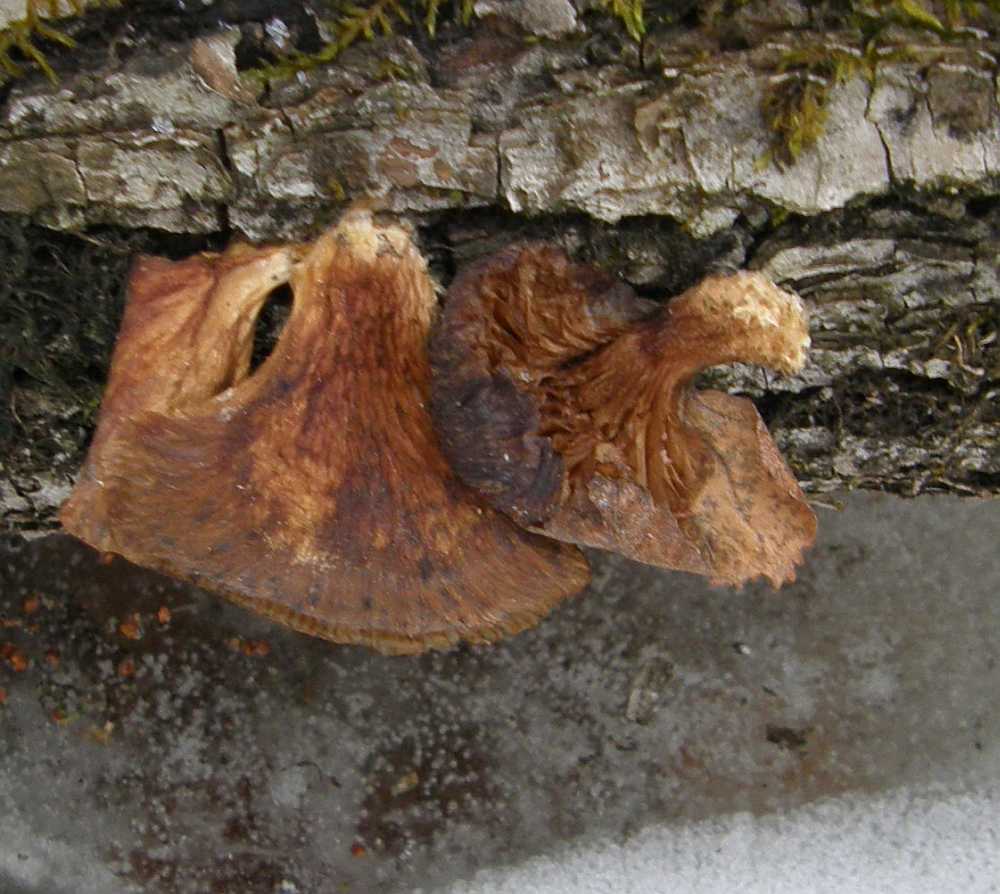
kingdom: Fungi
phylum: Basidiomycota
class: Agaricomycetes
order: Agaricales
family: Pleurotaceae
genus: Pleurotus
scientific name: Pleurotus ostreatus
